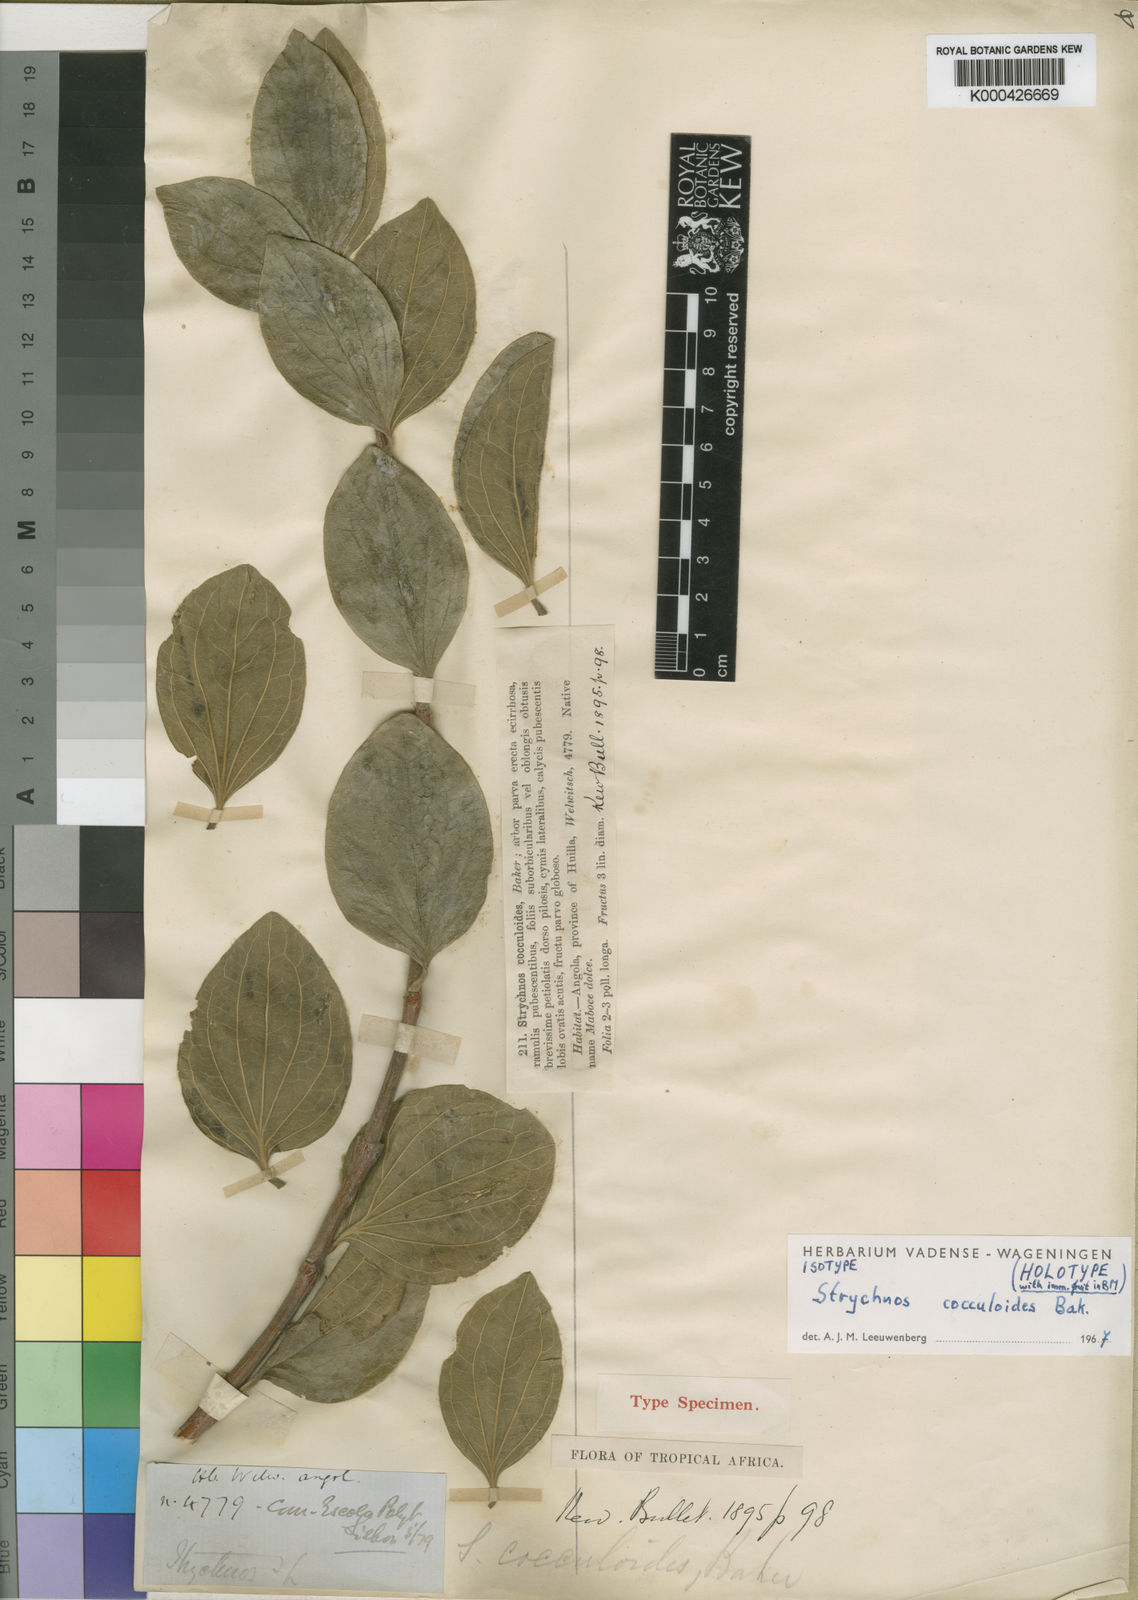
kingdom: Plantae
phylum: Tracheophyta
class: Magnoliopsida
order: Gentianales
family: Loganiaceae
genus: Strychnos
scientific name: Strychnos cocculoides
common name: Corky-bark monkey-orange
